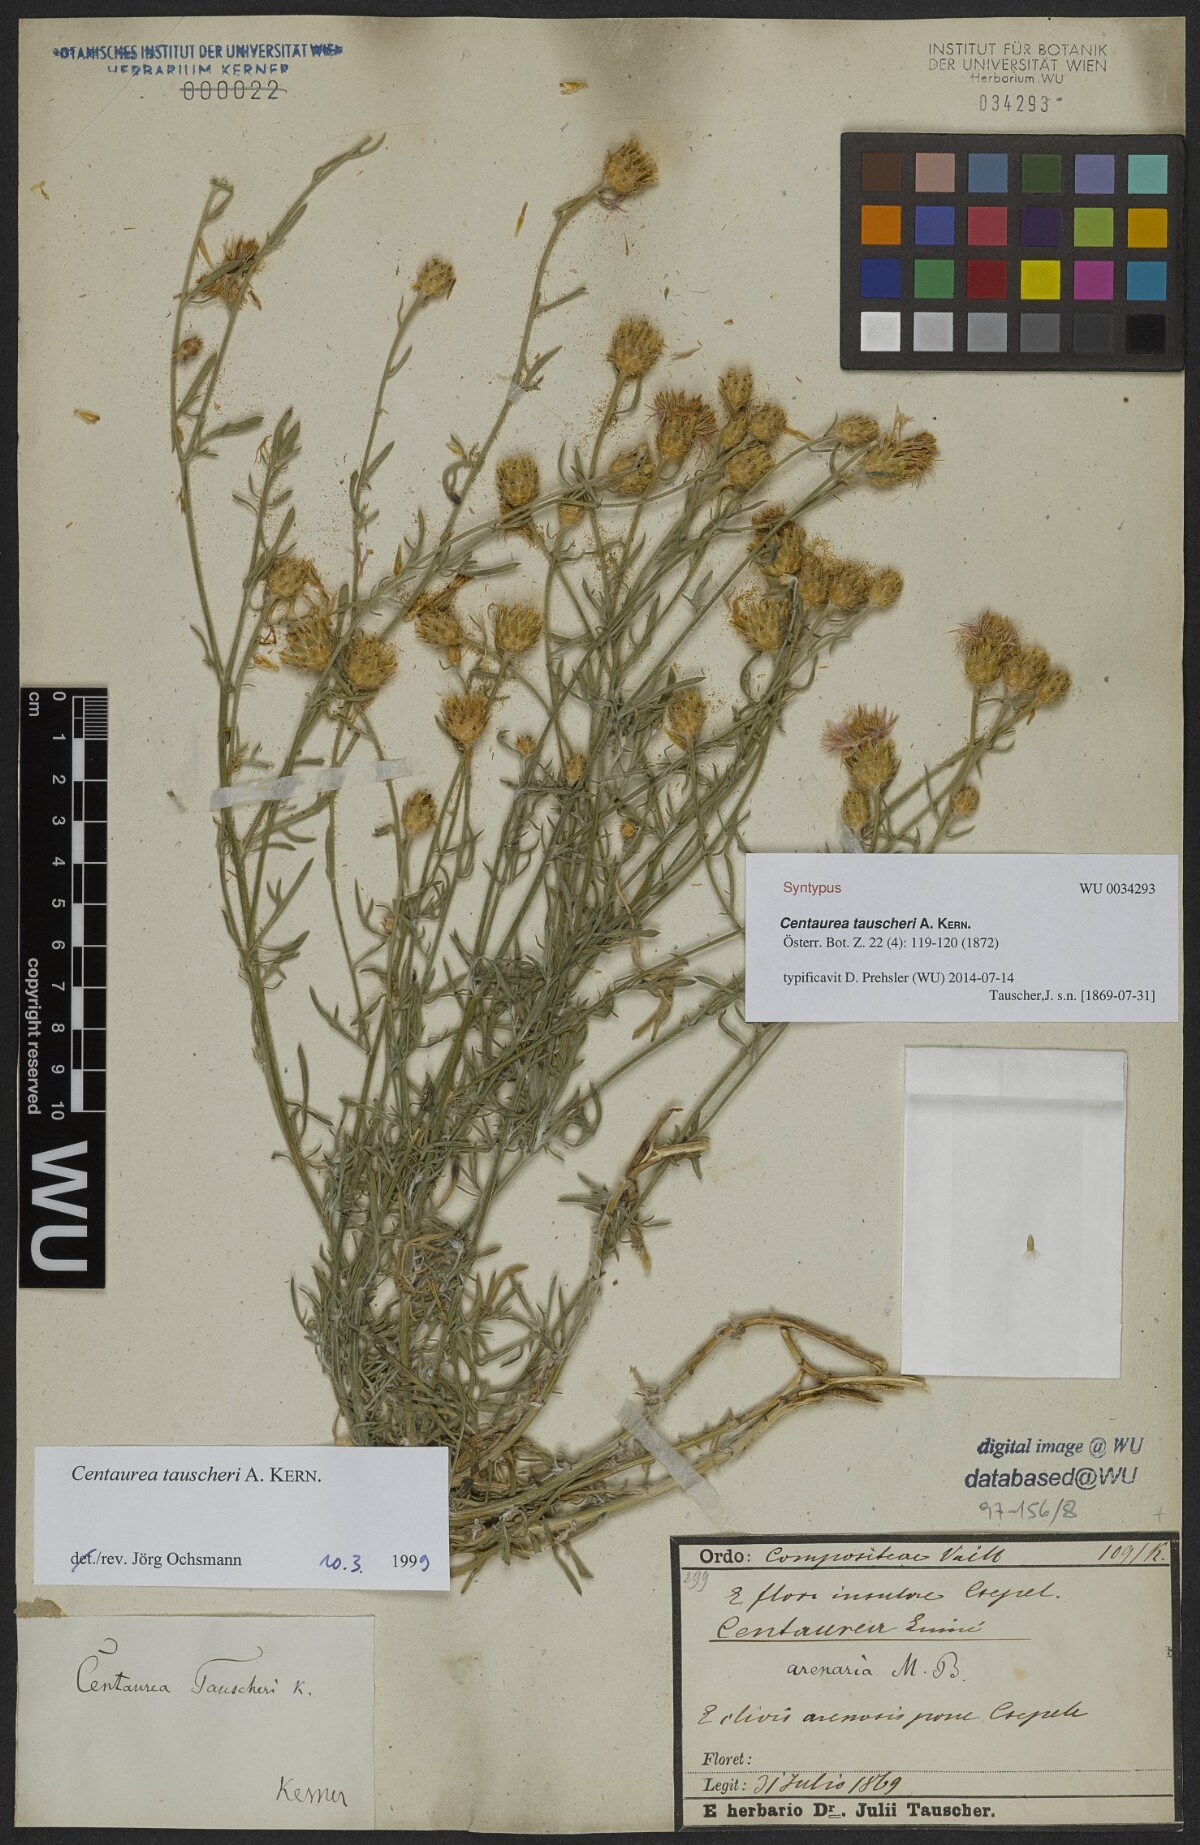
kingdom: Plantae
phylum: Tracheophyta
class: Magnoliopsida
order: Asterales
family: Asteraceae
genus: Centaurea
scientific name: Centaurea tauscheri
